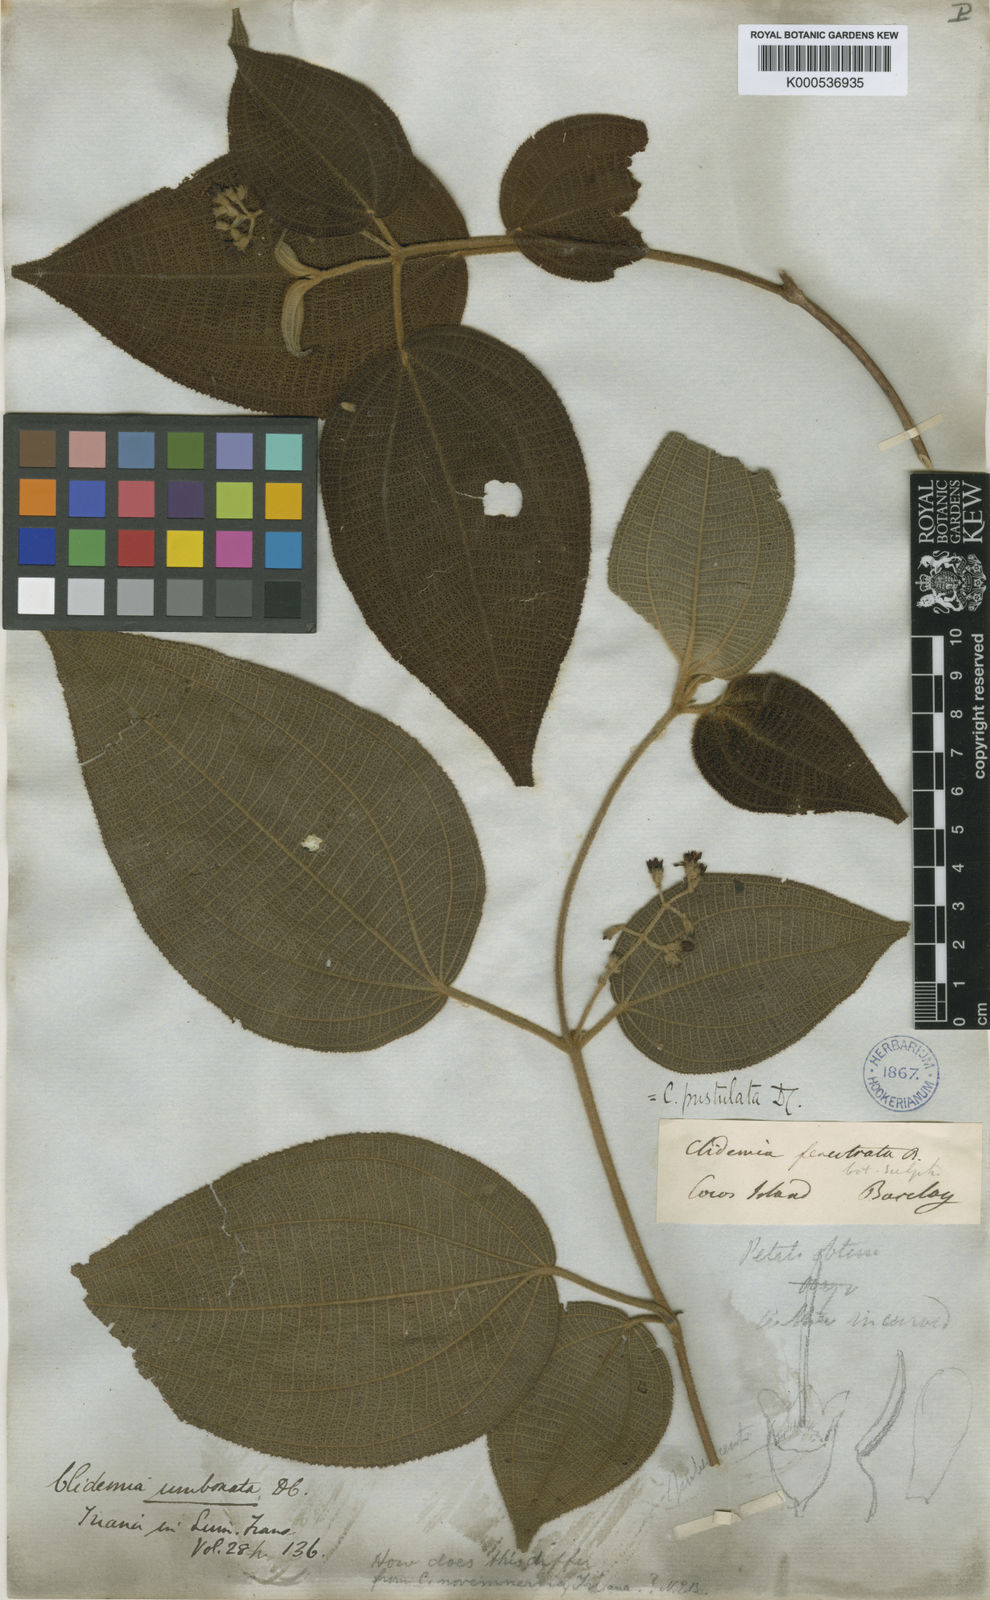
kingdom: Plantae
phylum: Tracheophyta
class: Magnoliopsida
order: Myrtales
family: Melastomataceae
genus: Miconia
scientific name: Miconia fenestrata
